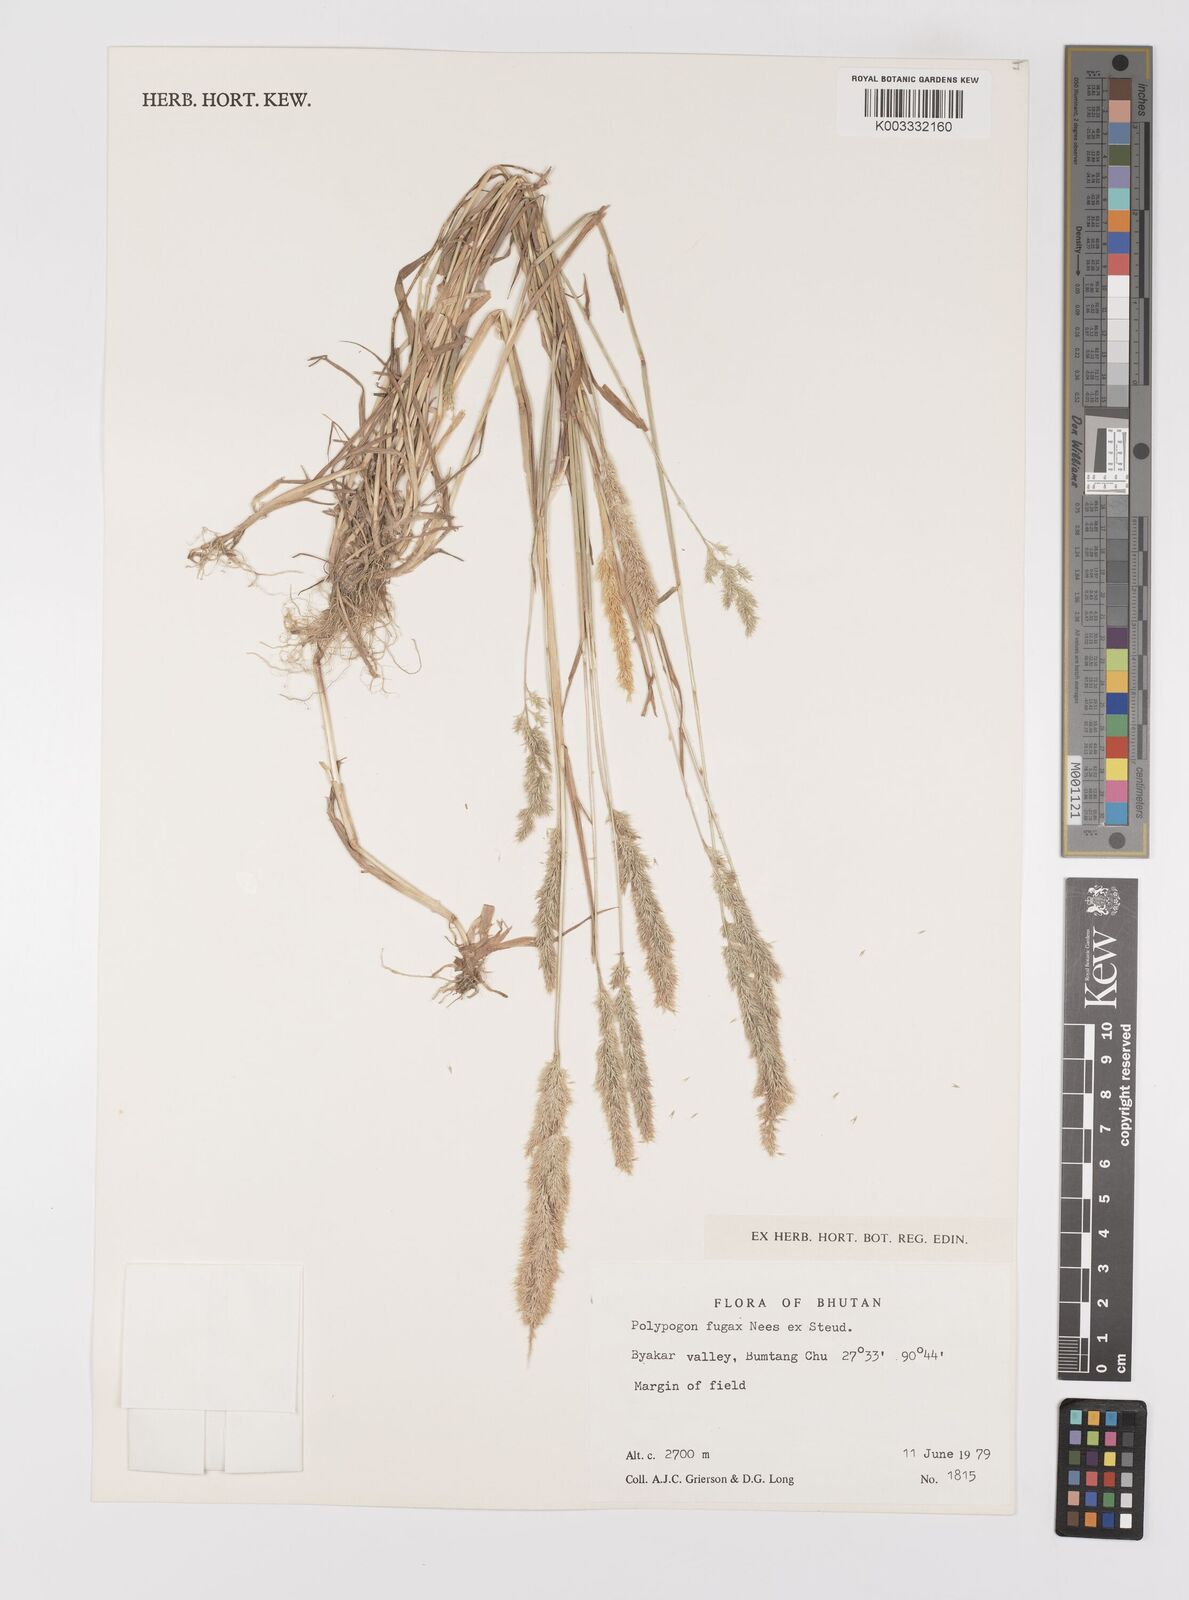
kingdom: Plantae
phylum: Tracheophyta
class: Liliopsida
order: Poales
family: Poaceae
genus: Polypogon
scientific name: Polypogon fugax
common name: Asia minor bluegrass
